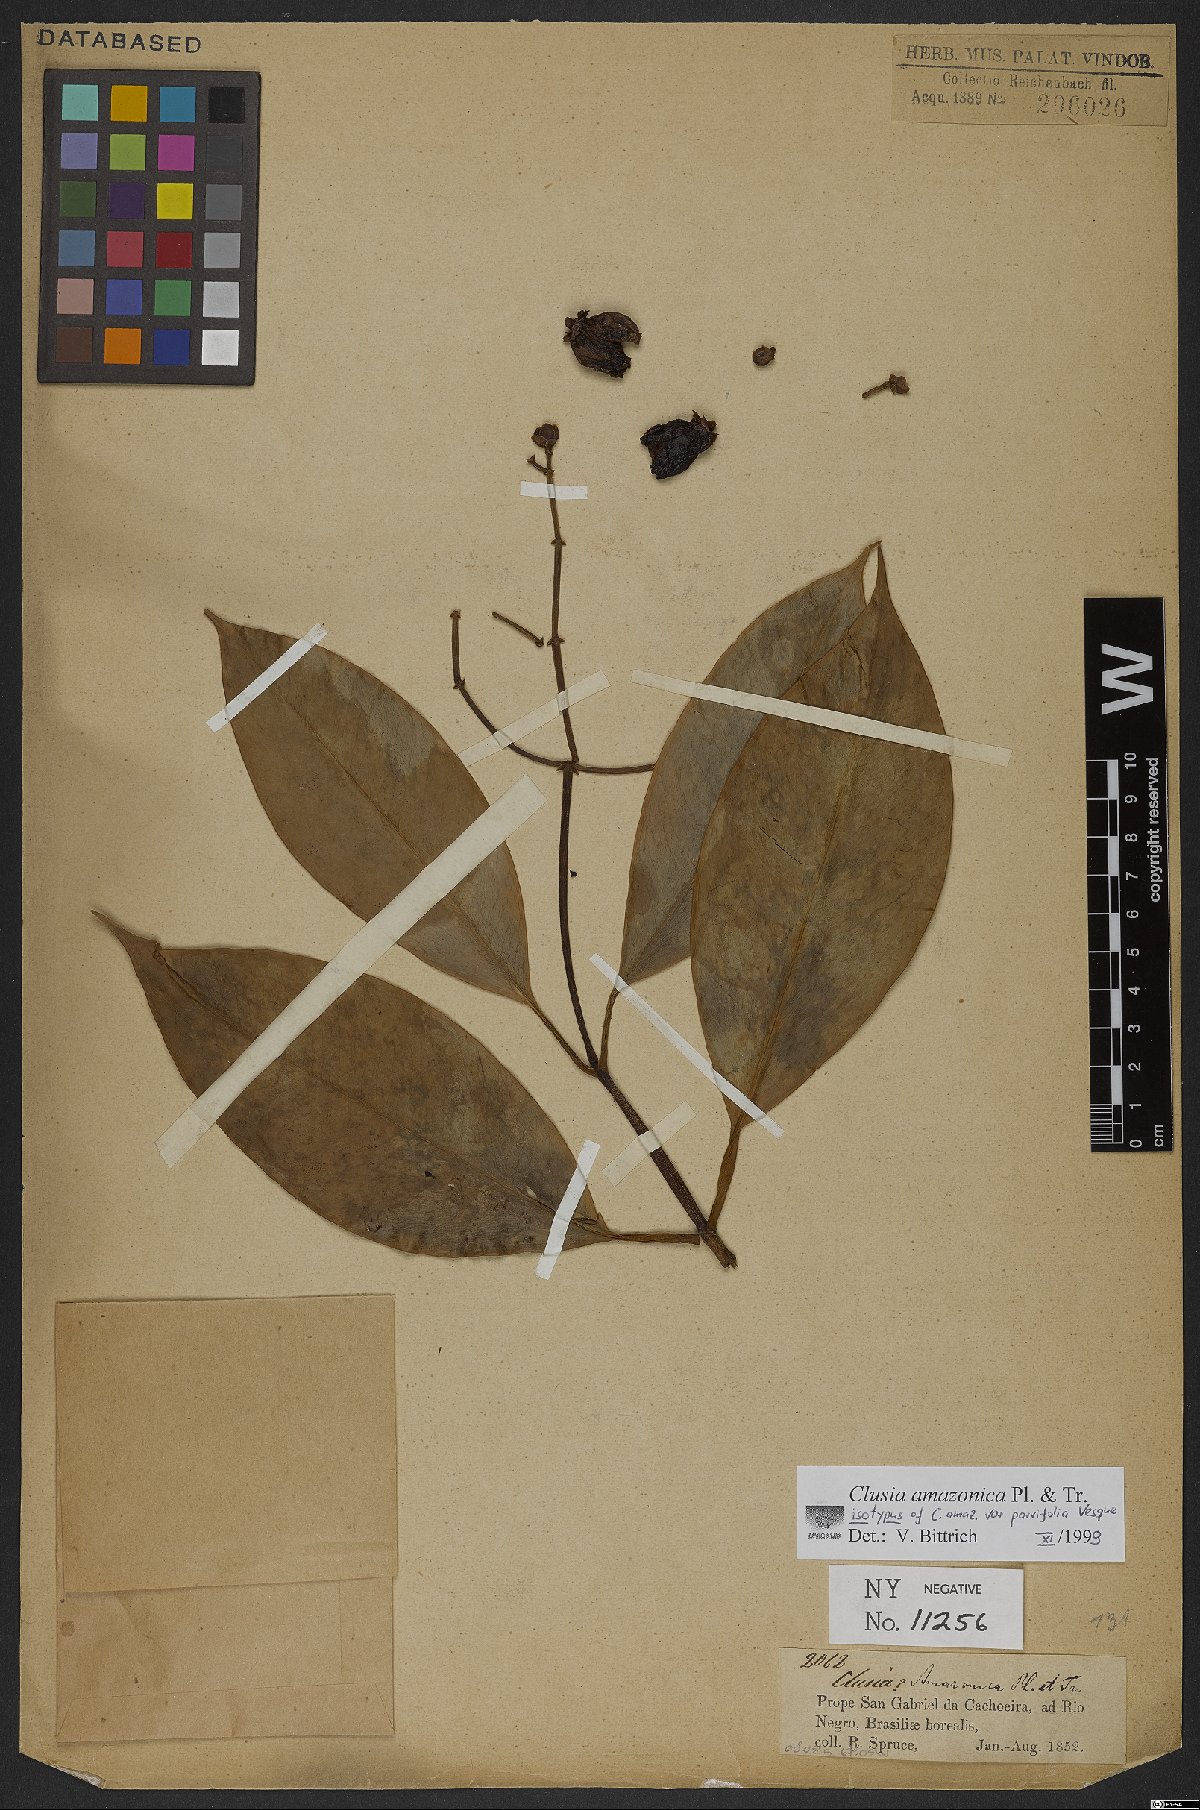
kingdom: Plantae
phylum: Tracheophyta
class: Magnoliopsida
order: Malpighiales
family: Clusiaceae
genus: Clusia
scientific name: Clusia amazonica
